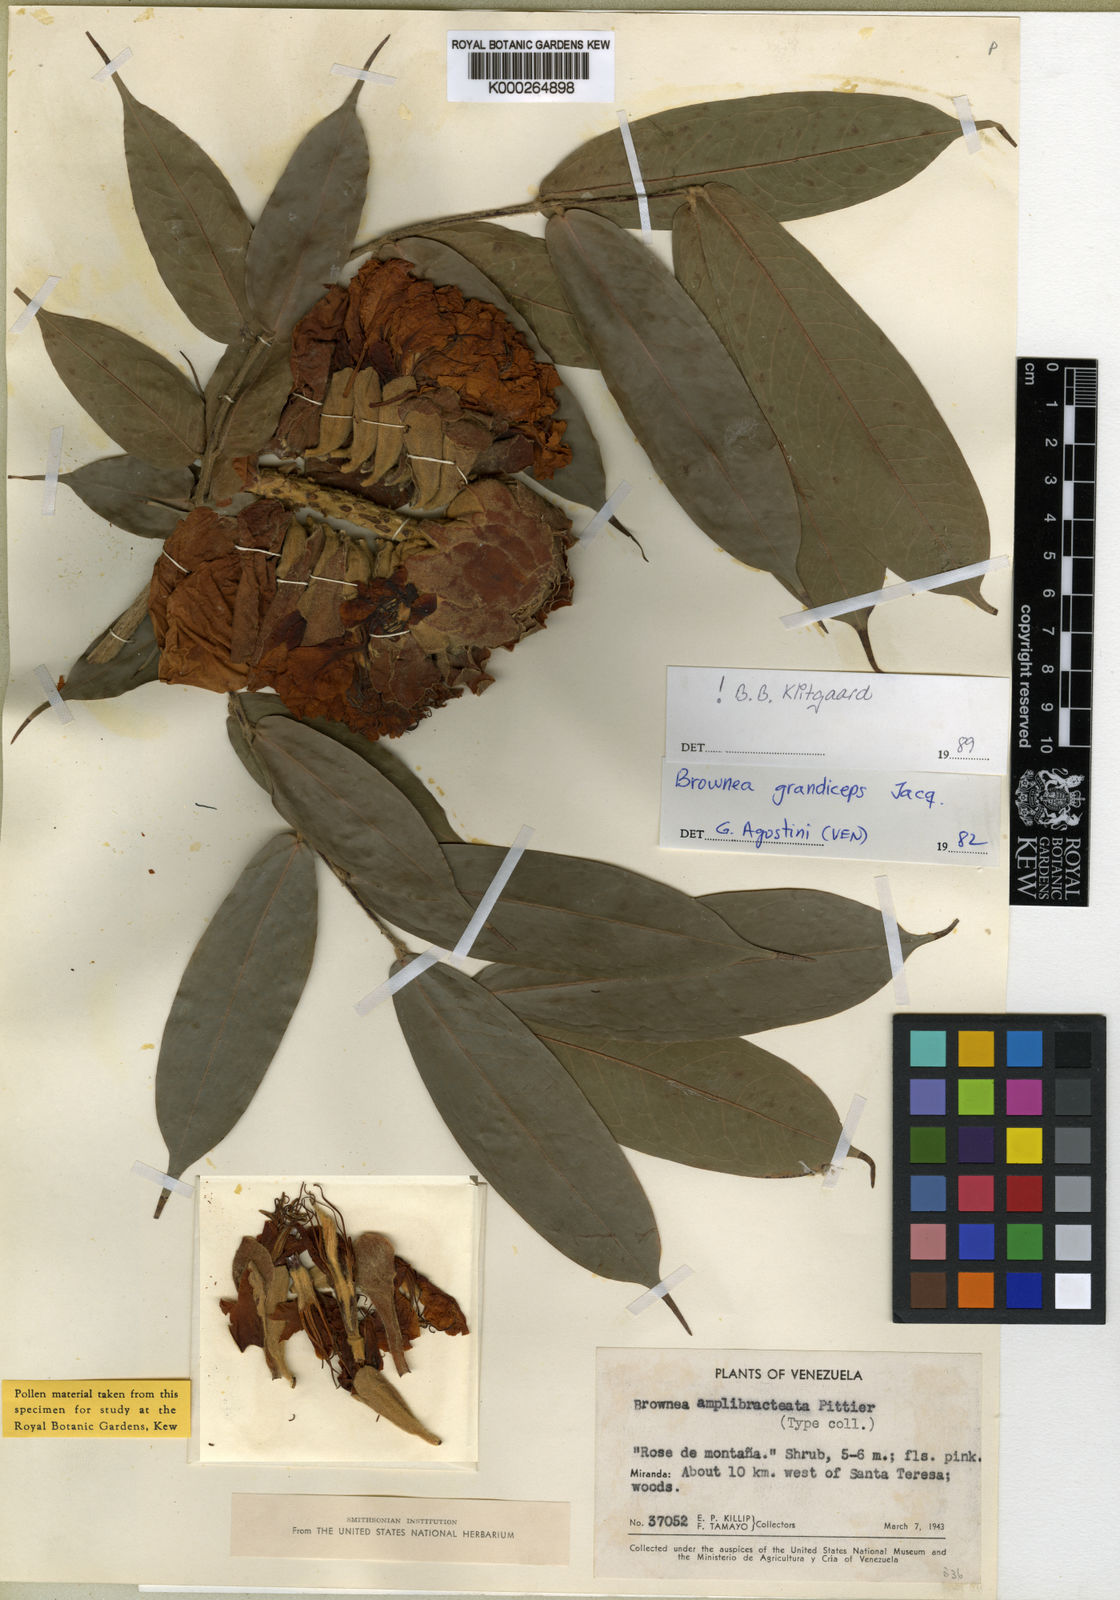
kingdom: Plantae
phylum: Tracheophyta
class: Magnoliopsida
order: Fabales
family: Fabaceae
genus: Brownea
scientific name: Brownea grandiceps
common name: Rose-of-venezuela
